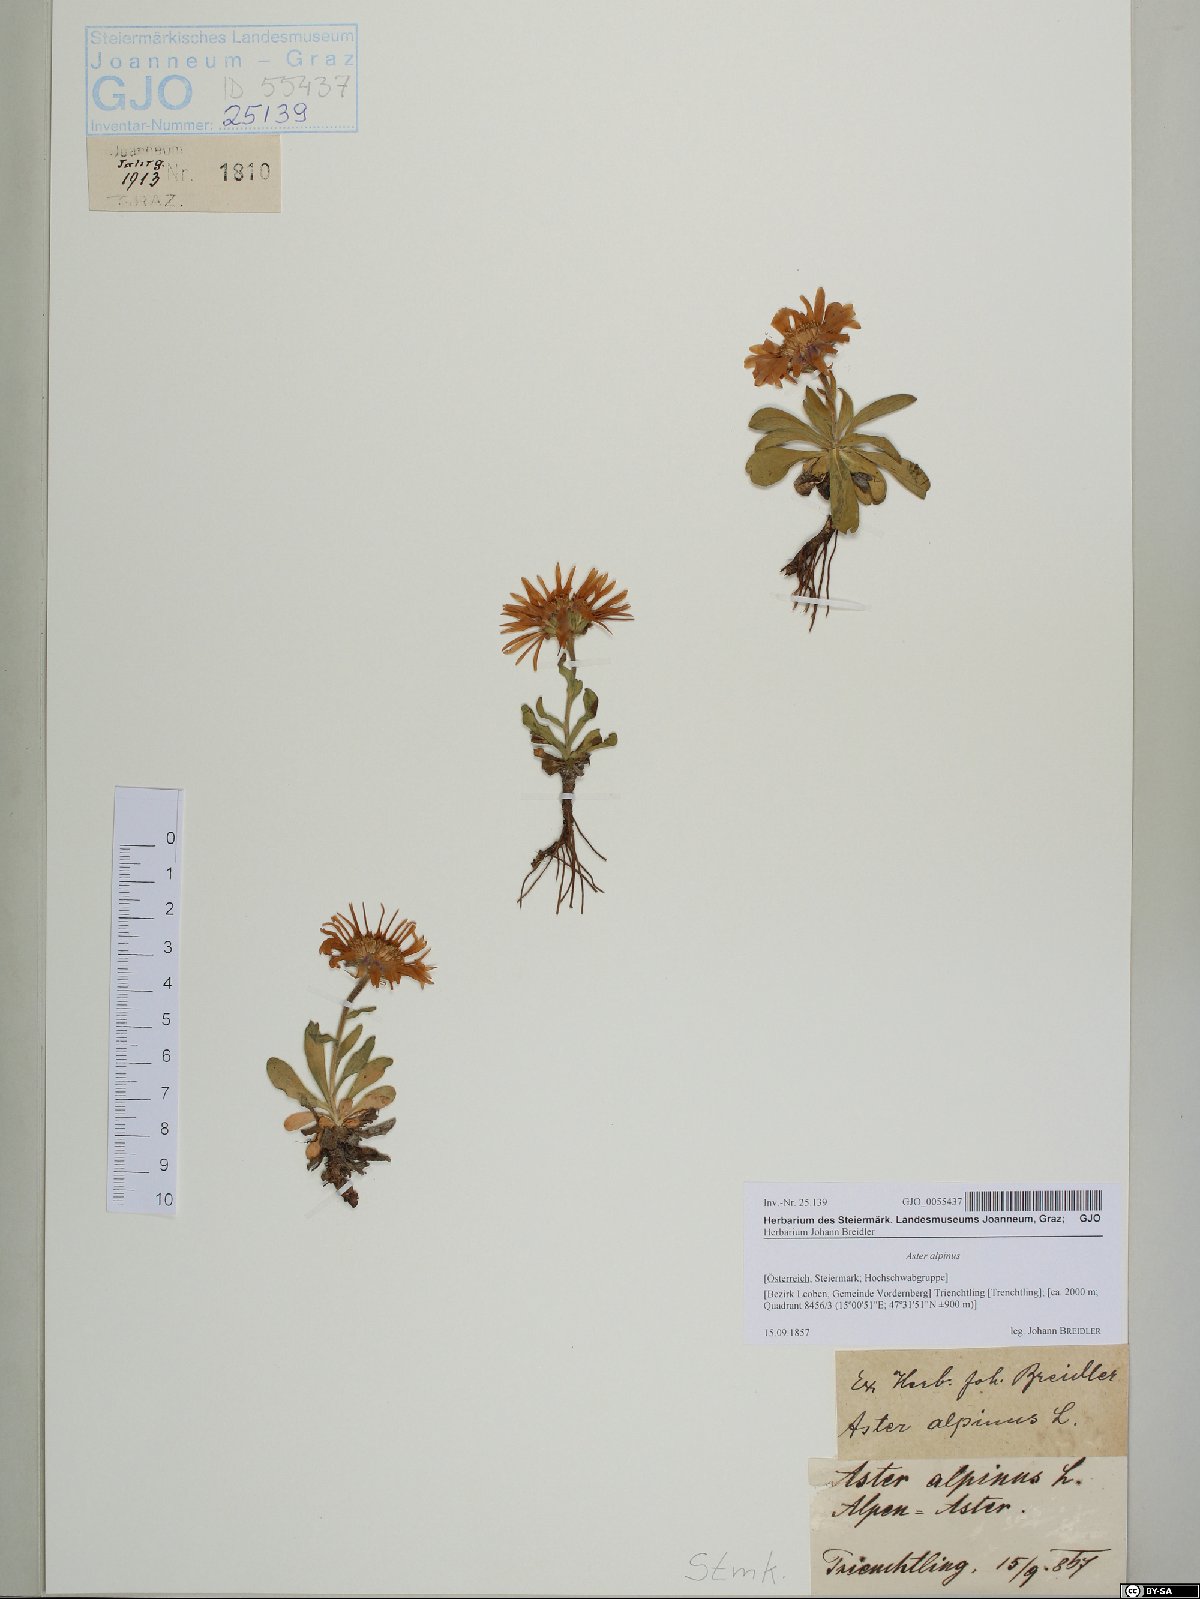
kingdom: Plantae
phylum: Tracheophyta
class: Magnoliopsida
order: Asterales
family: Asteraceae
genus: Aster
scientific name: Aster alpinus
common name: Alpine aster
